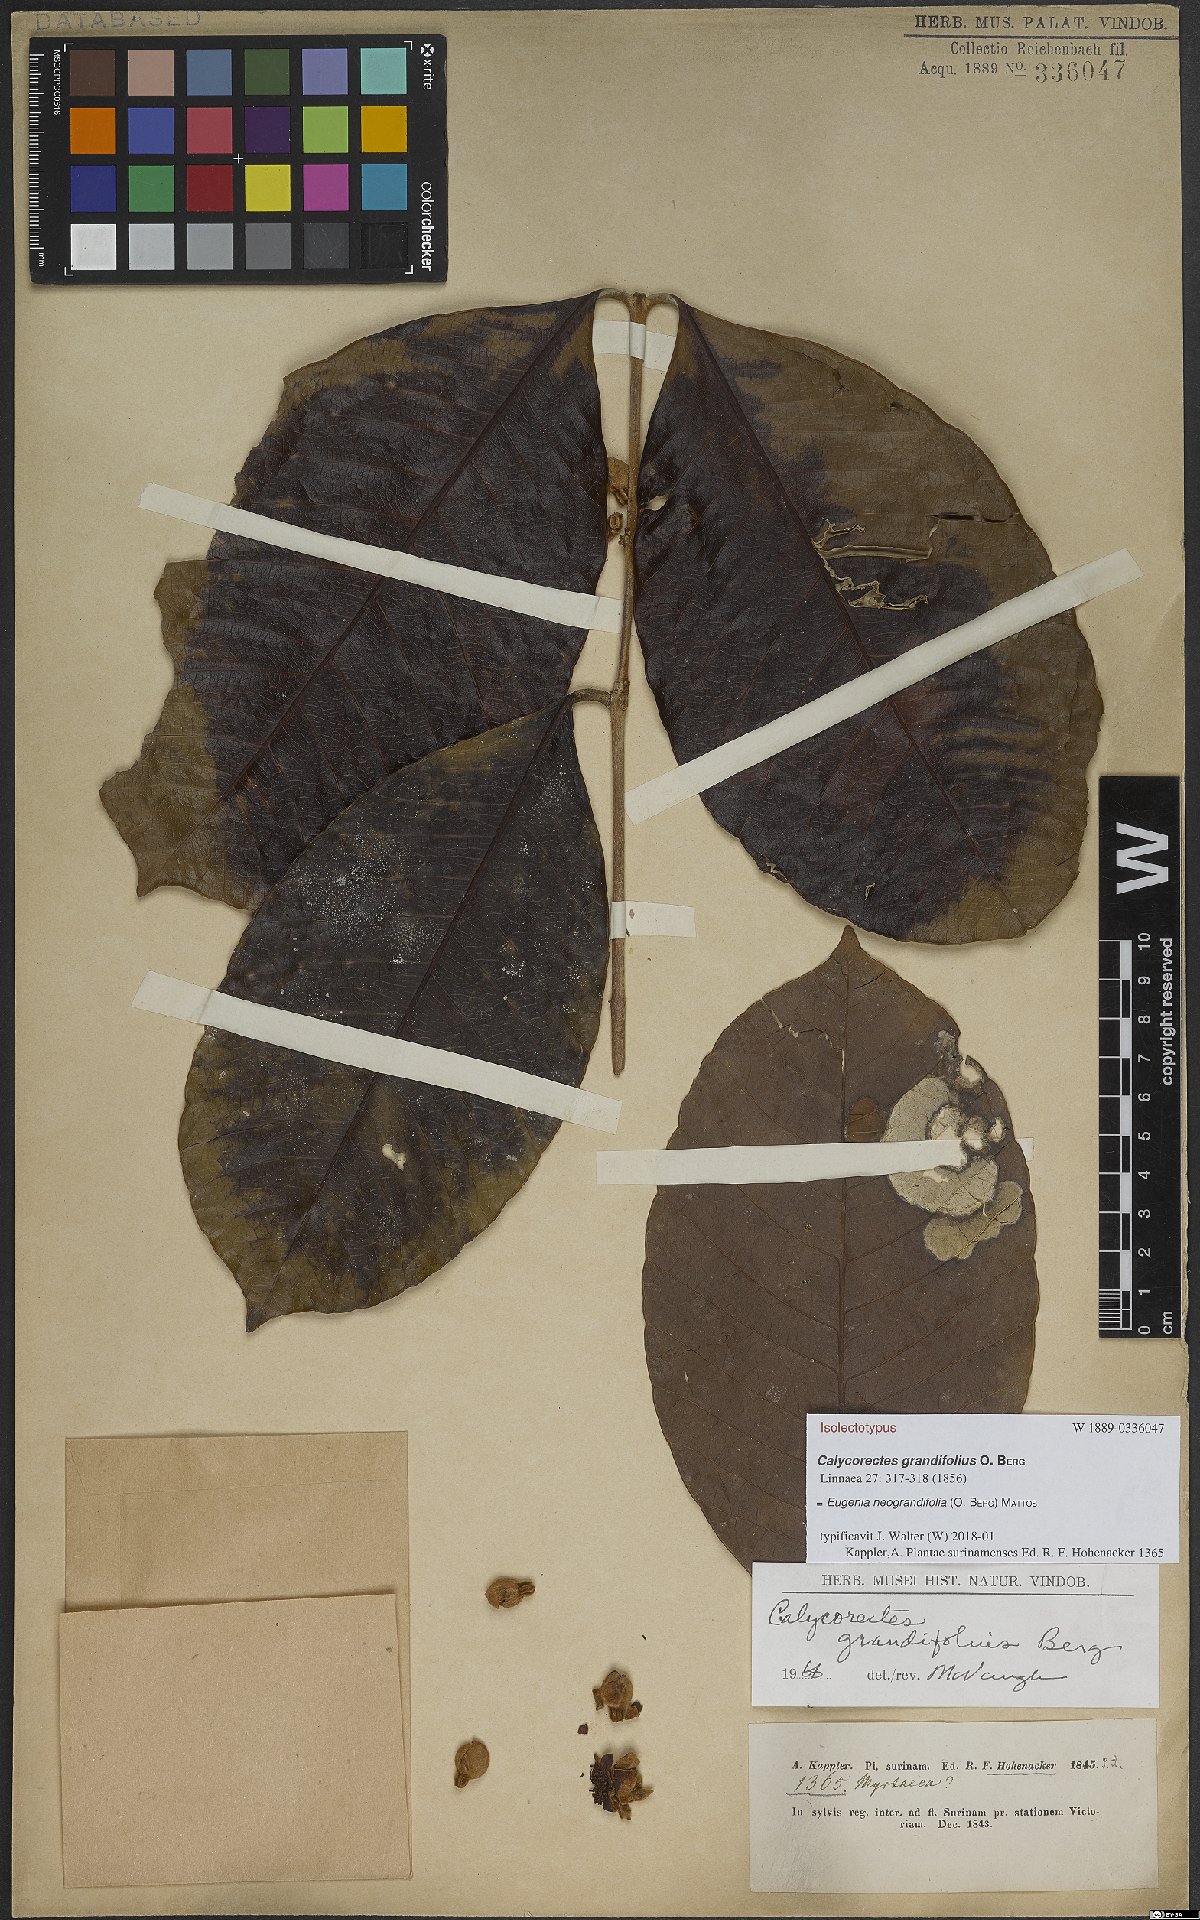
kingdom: Plantae
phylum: Tracheophyta
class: Magnoliopsida
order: Myrtales
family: Myrtaceae
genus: Calycorectes
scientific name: Calycorectes grandifolius
